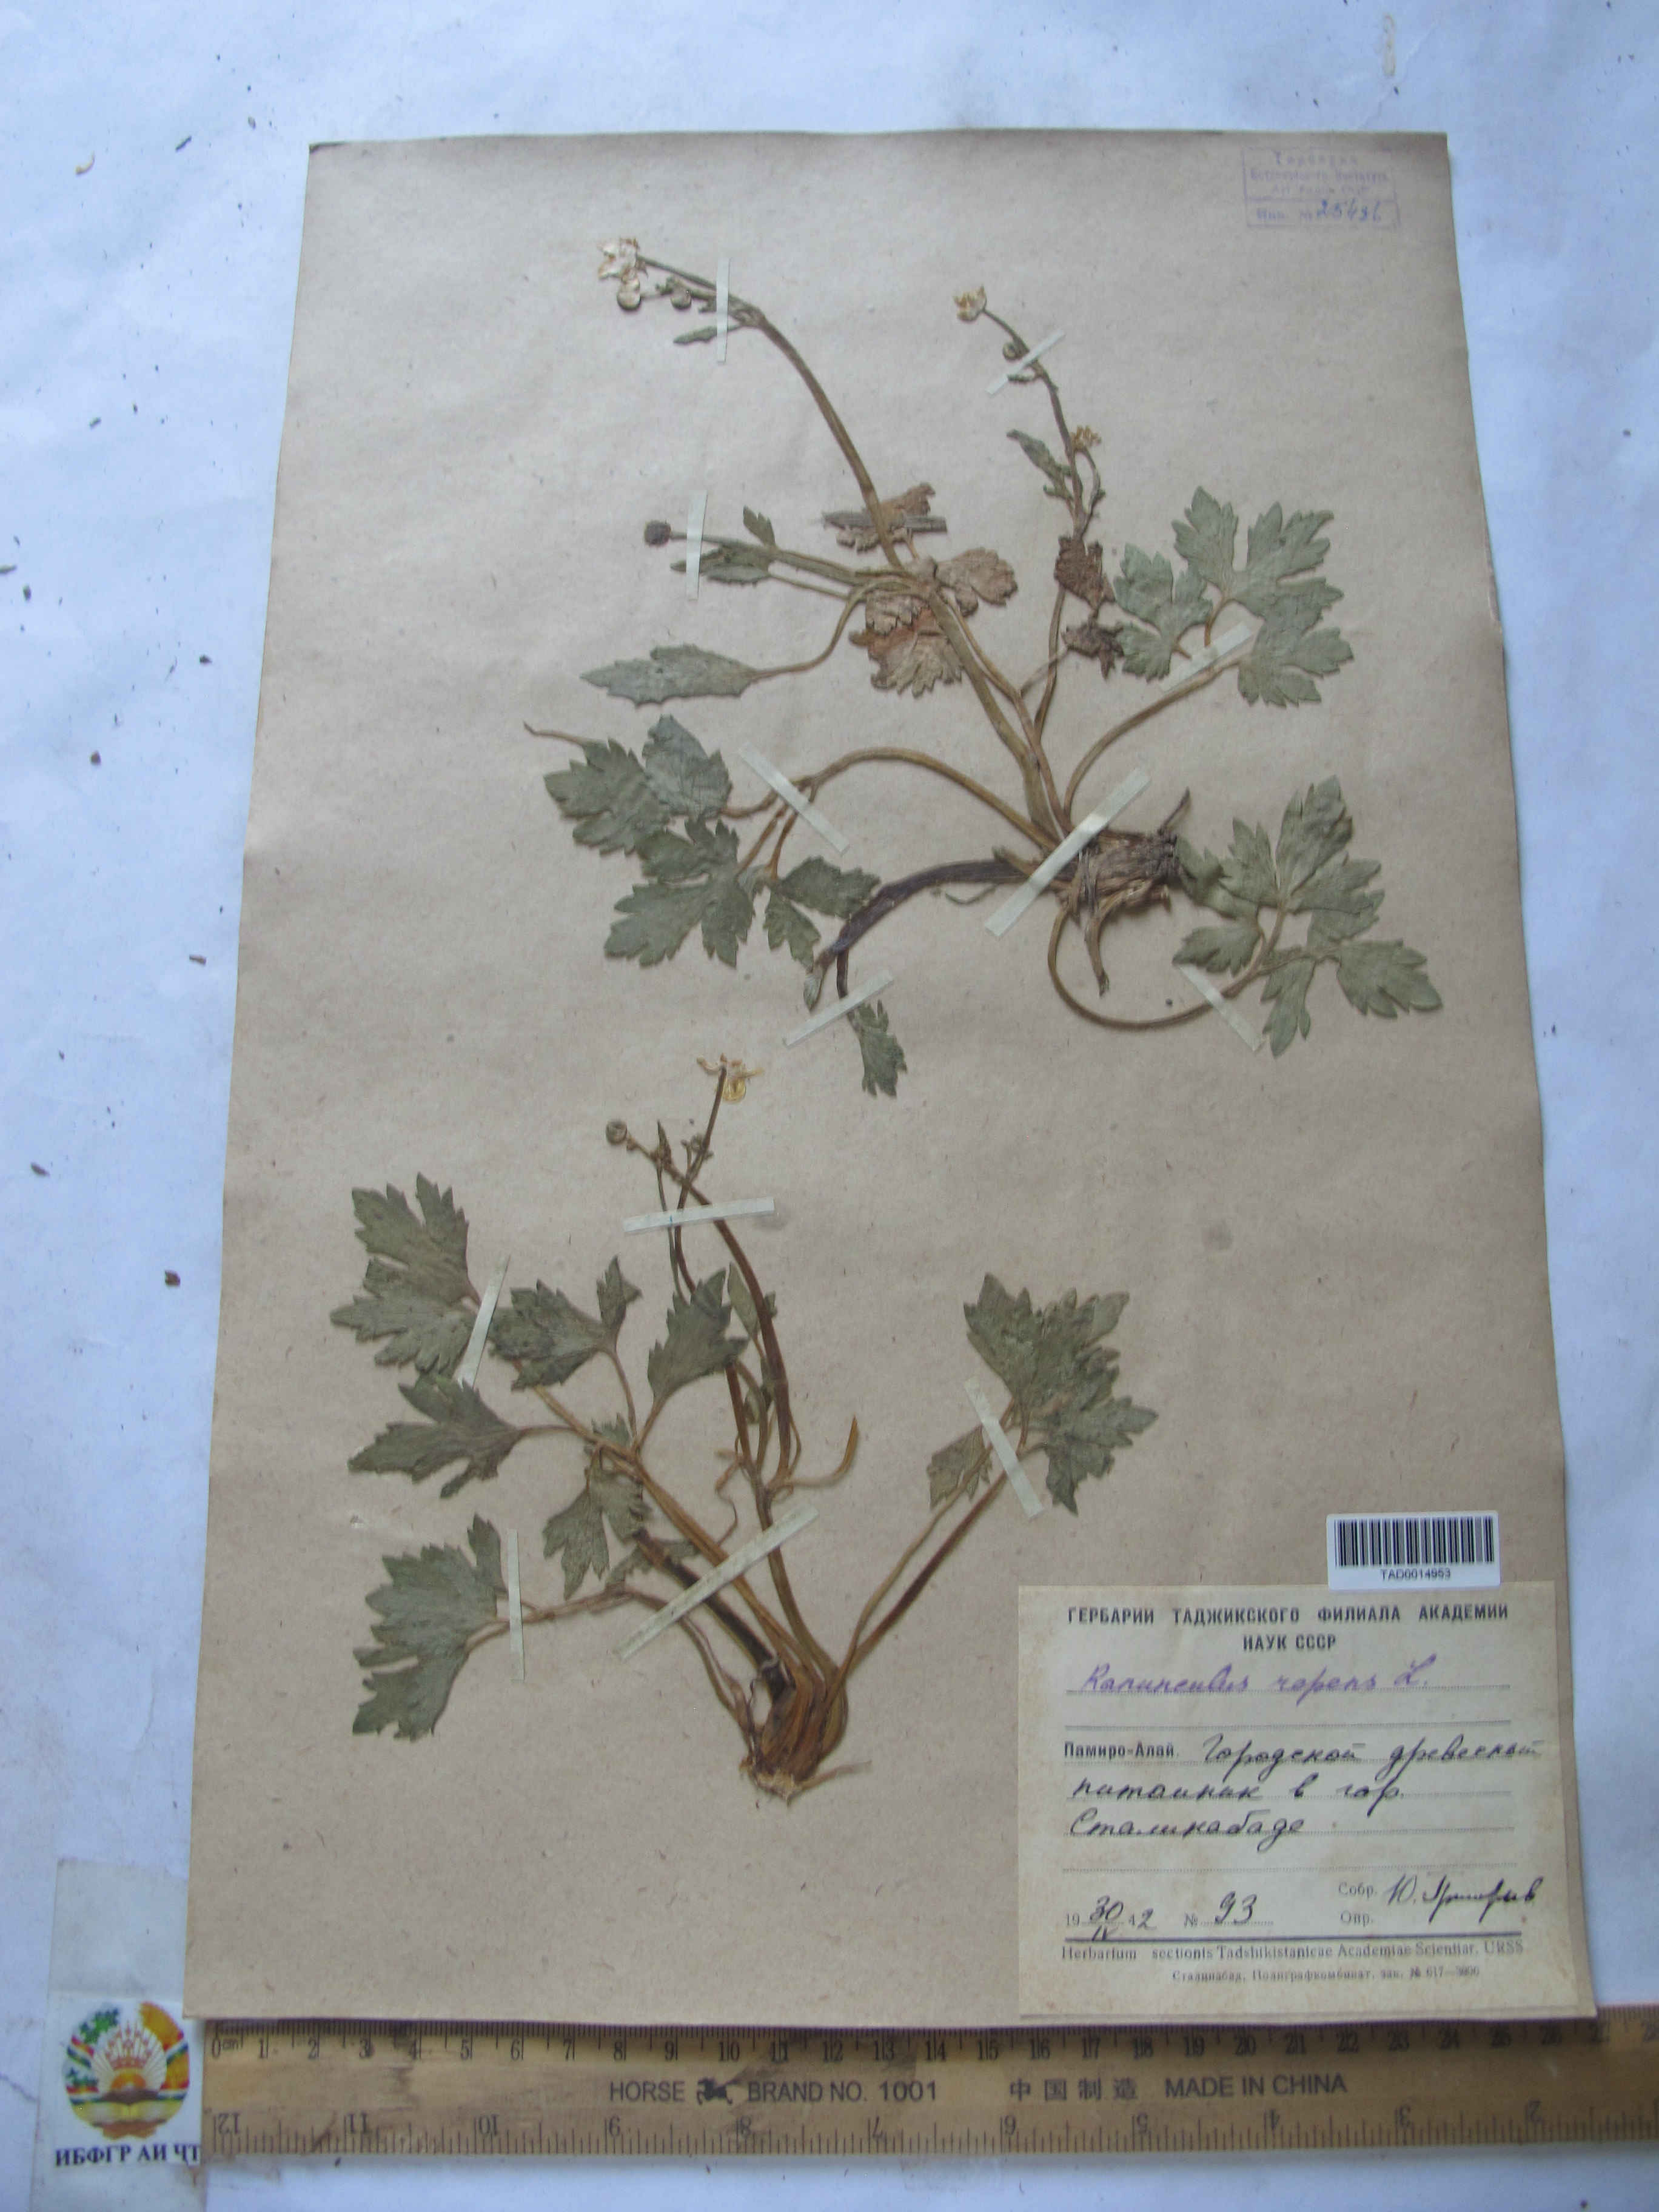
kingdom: Plantae
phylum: Tracheophyta
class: Magnoliopsida
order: Ranunculales
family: Ranunculaceae
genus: Ranunculus
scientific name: Ranunculus repens
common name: Creeping buttercup
